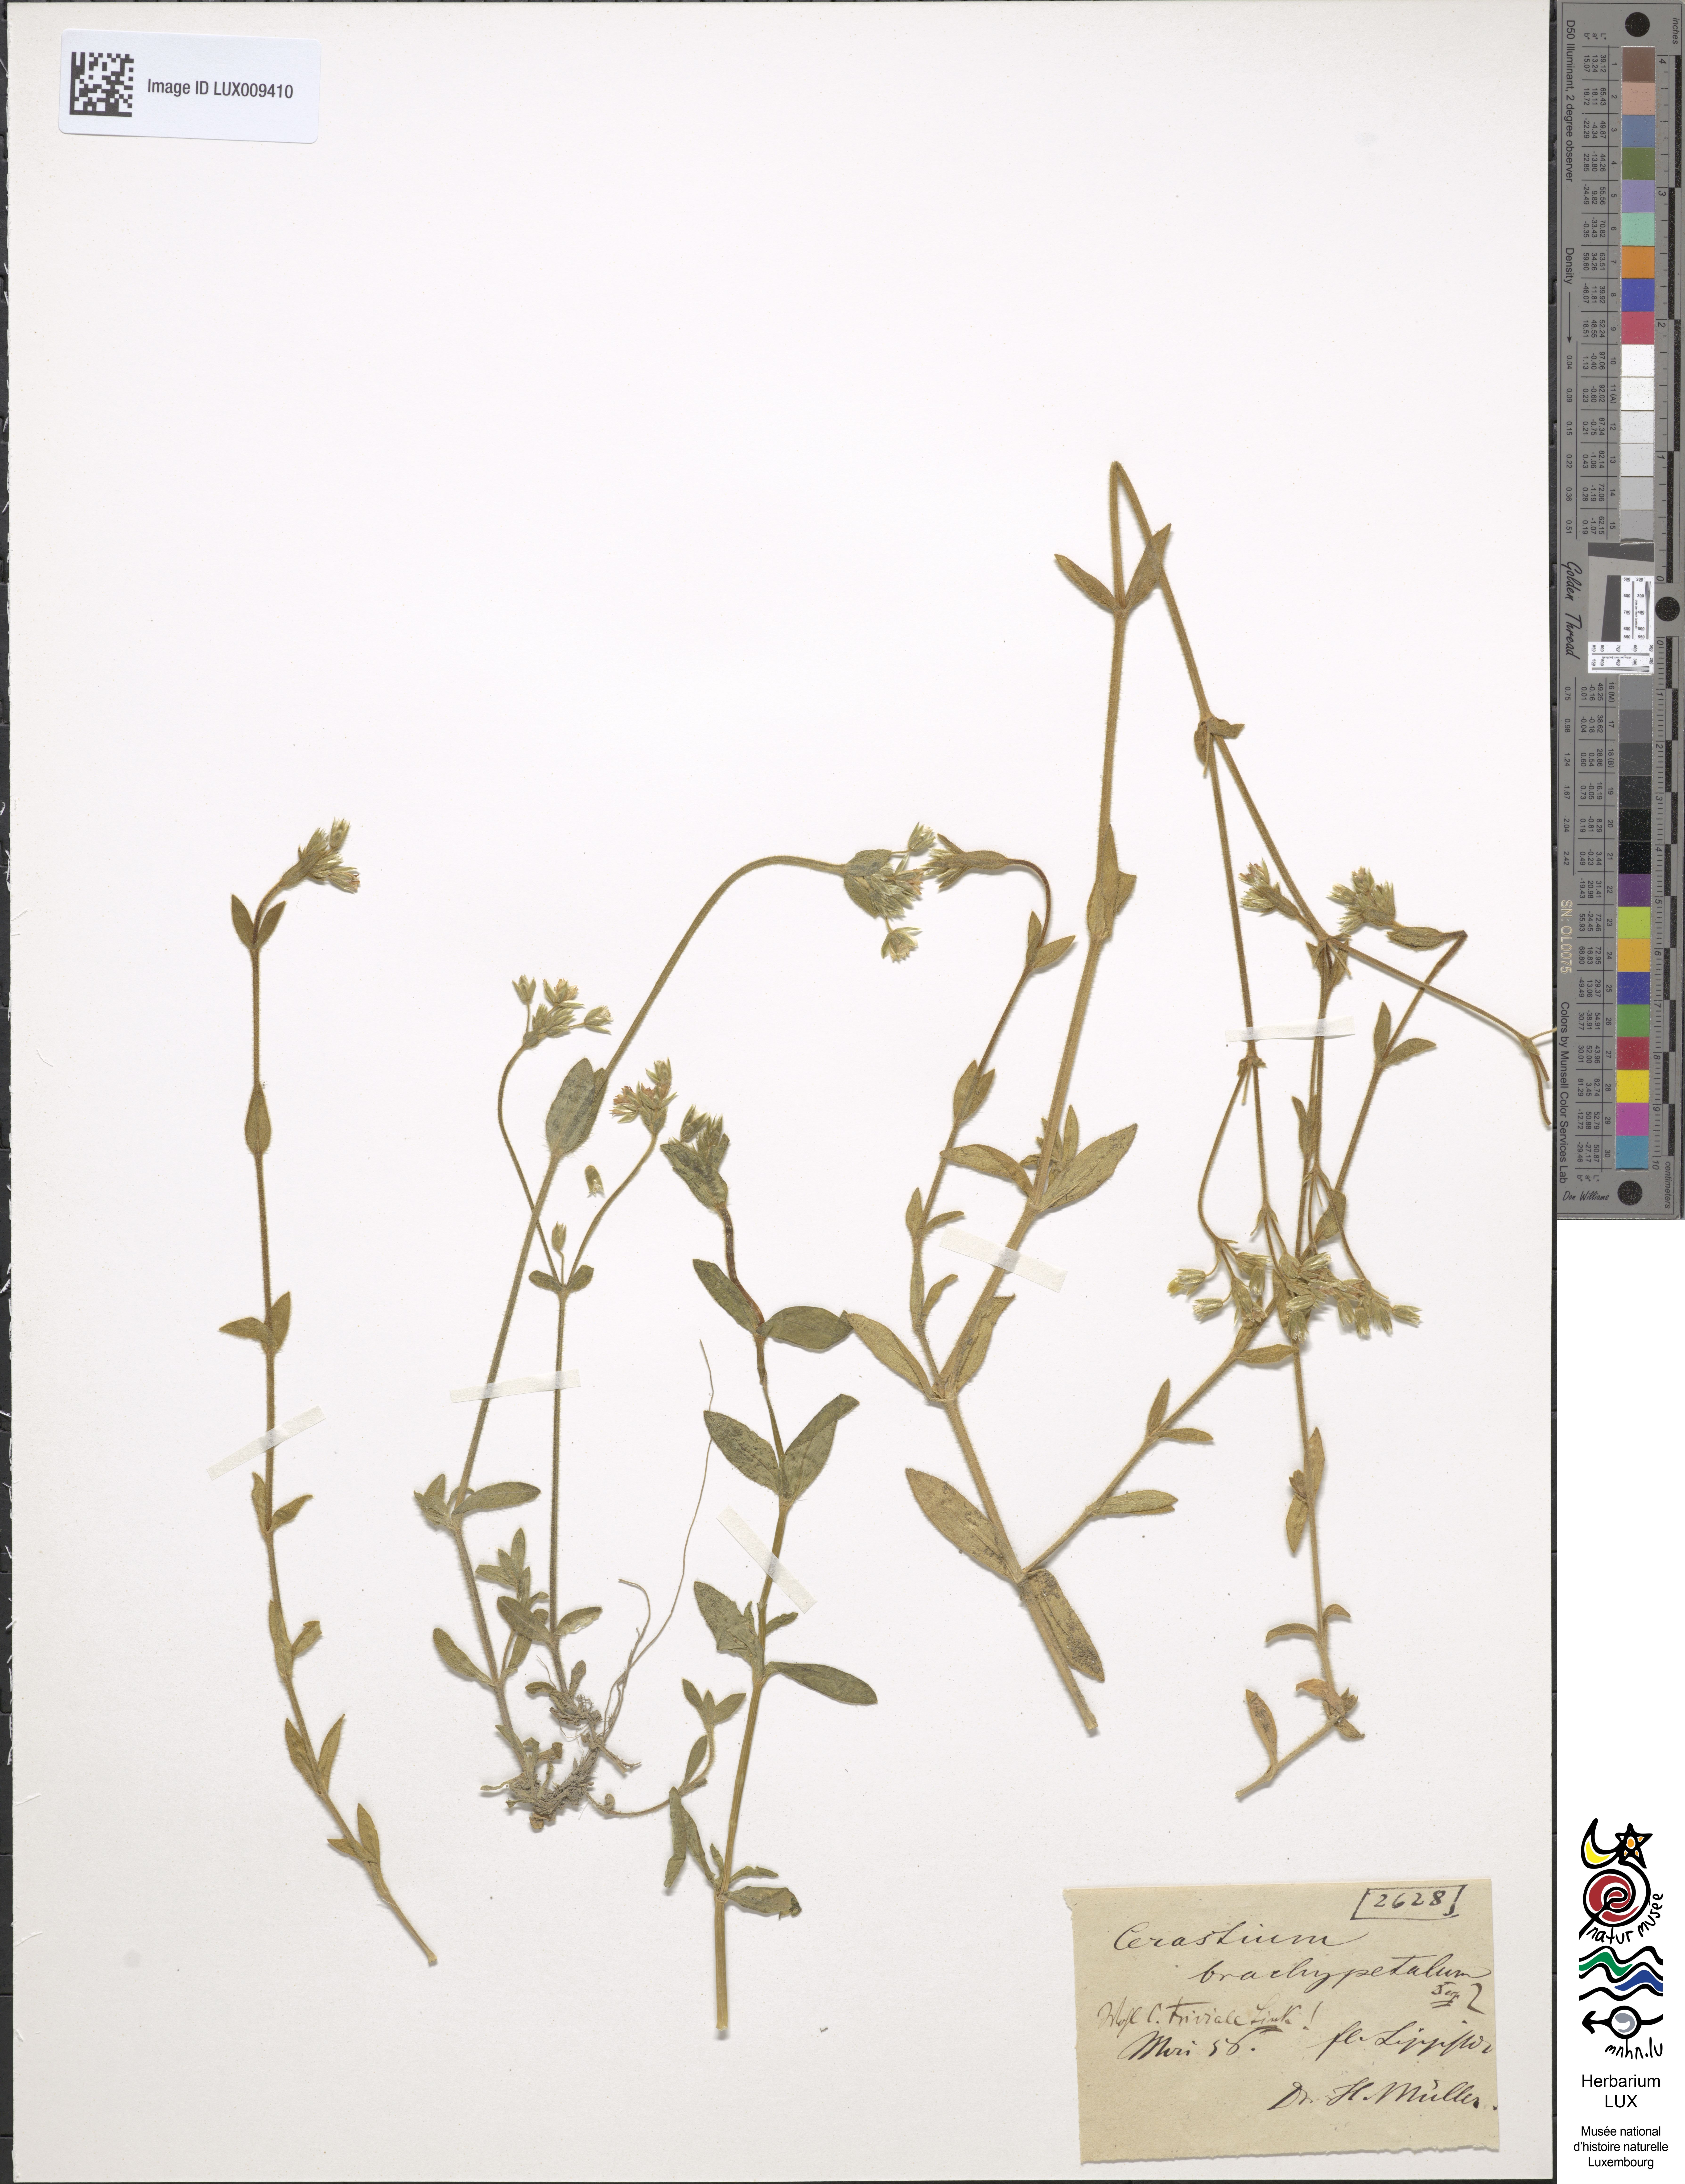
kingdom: Plantae
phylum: Tracheophyta
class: Magnoliopsida
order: Caryophyllales
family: Caryophyllaceae
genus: Cerastium
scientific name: Cerastium
